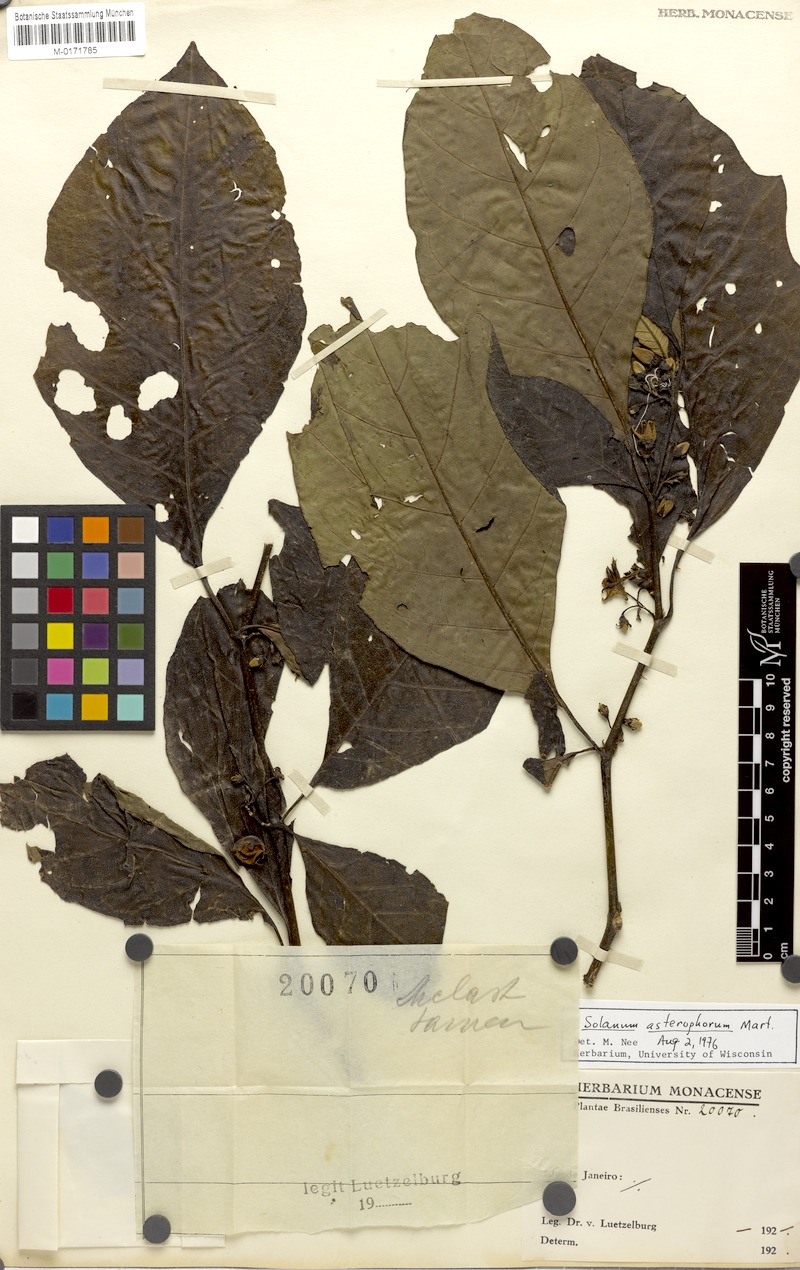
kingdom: Plantae
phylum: Tracheophyta
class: Magnoliopsida
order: Solanales
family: Solanaceae
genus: Solanum
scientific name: Solanum asterophorum
